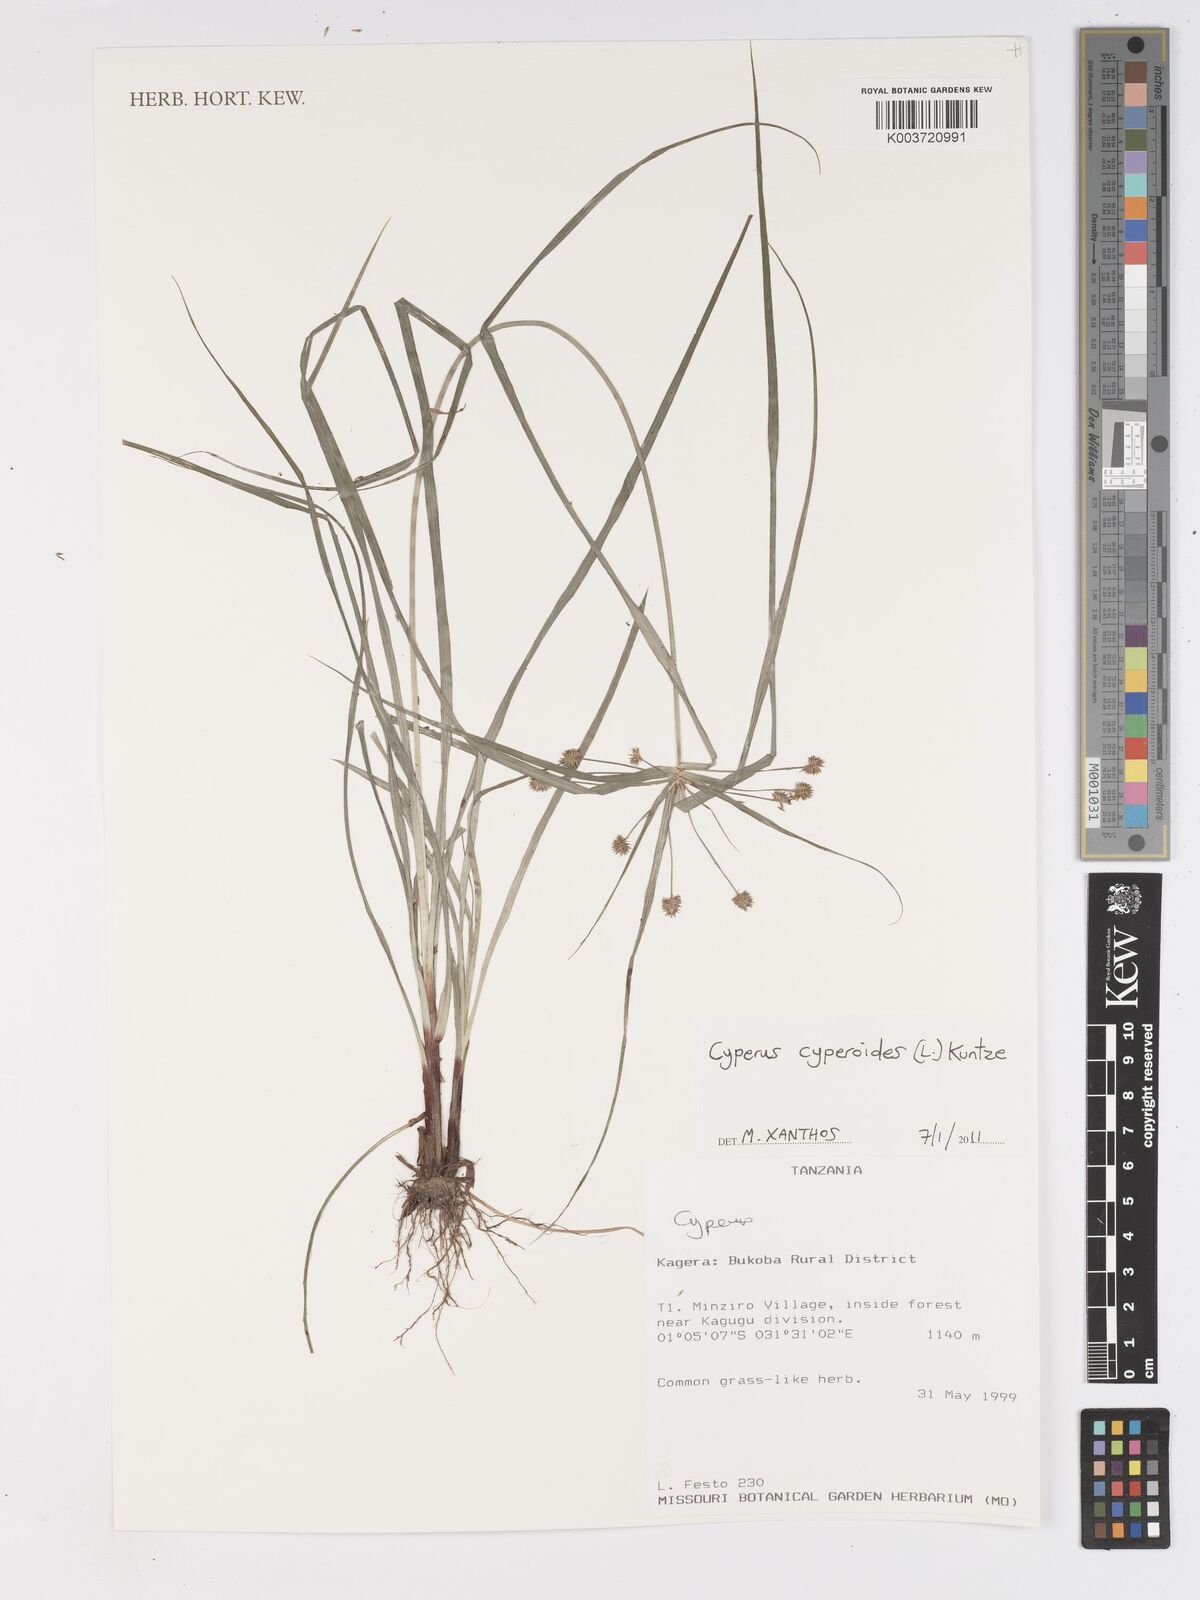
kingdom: Plantae
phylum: Tracheophyta
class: Liliopsida
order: Poales
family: Cyperaceae
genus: Cyperus
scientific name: Cyperus
